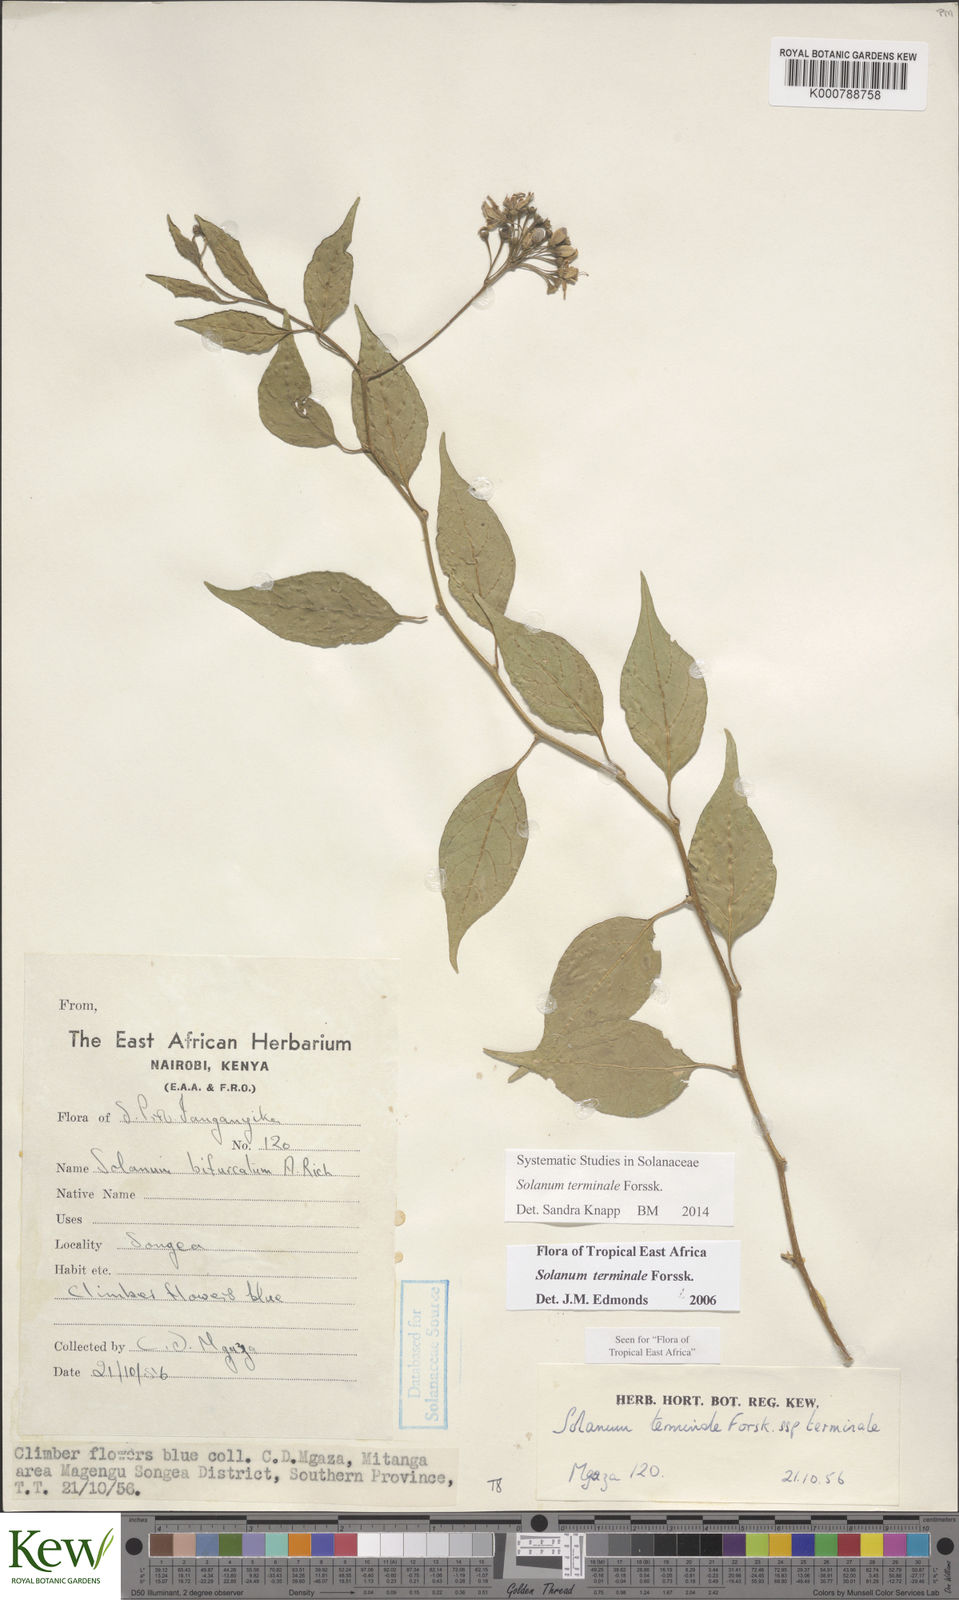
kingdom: Plantae
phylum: Tracheophyta
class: Magnoliopsida
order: Solanales
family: Solanaceae
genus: Solanum
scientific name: Solanum terminale
